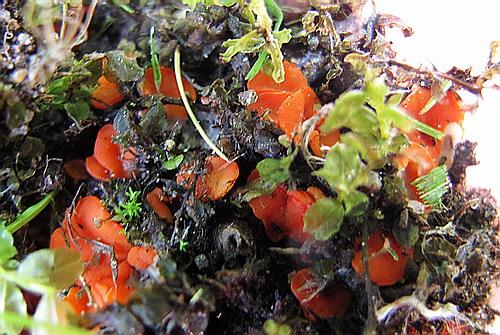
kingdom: Fungi
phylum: Ascomycota
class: Pezizomycetes
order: Pezizales
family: Pulvinulaceae
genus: Pulvinula
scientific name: Pulvinula convexella
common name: stor pudebæger
